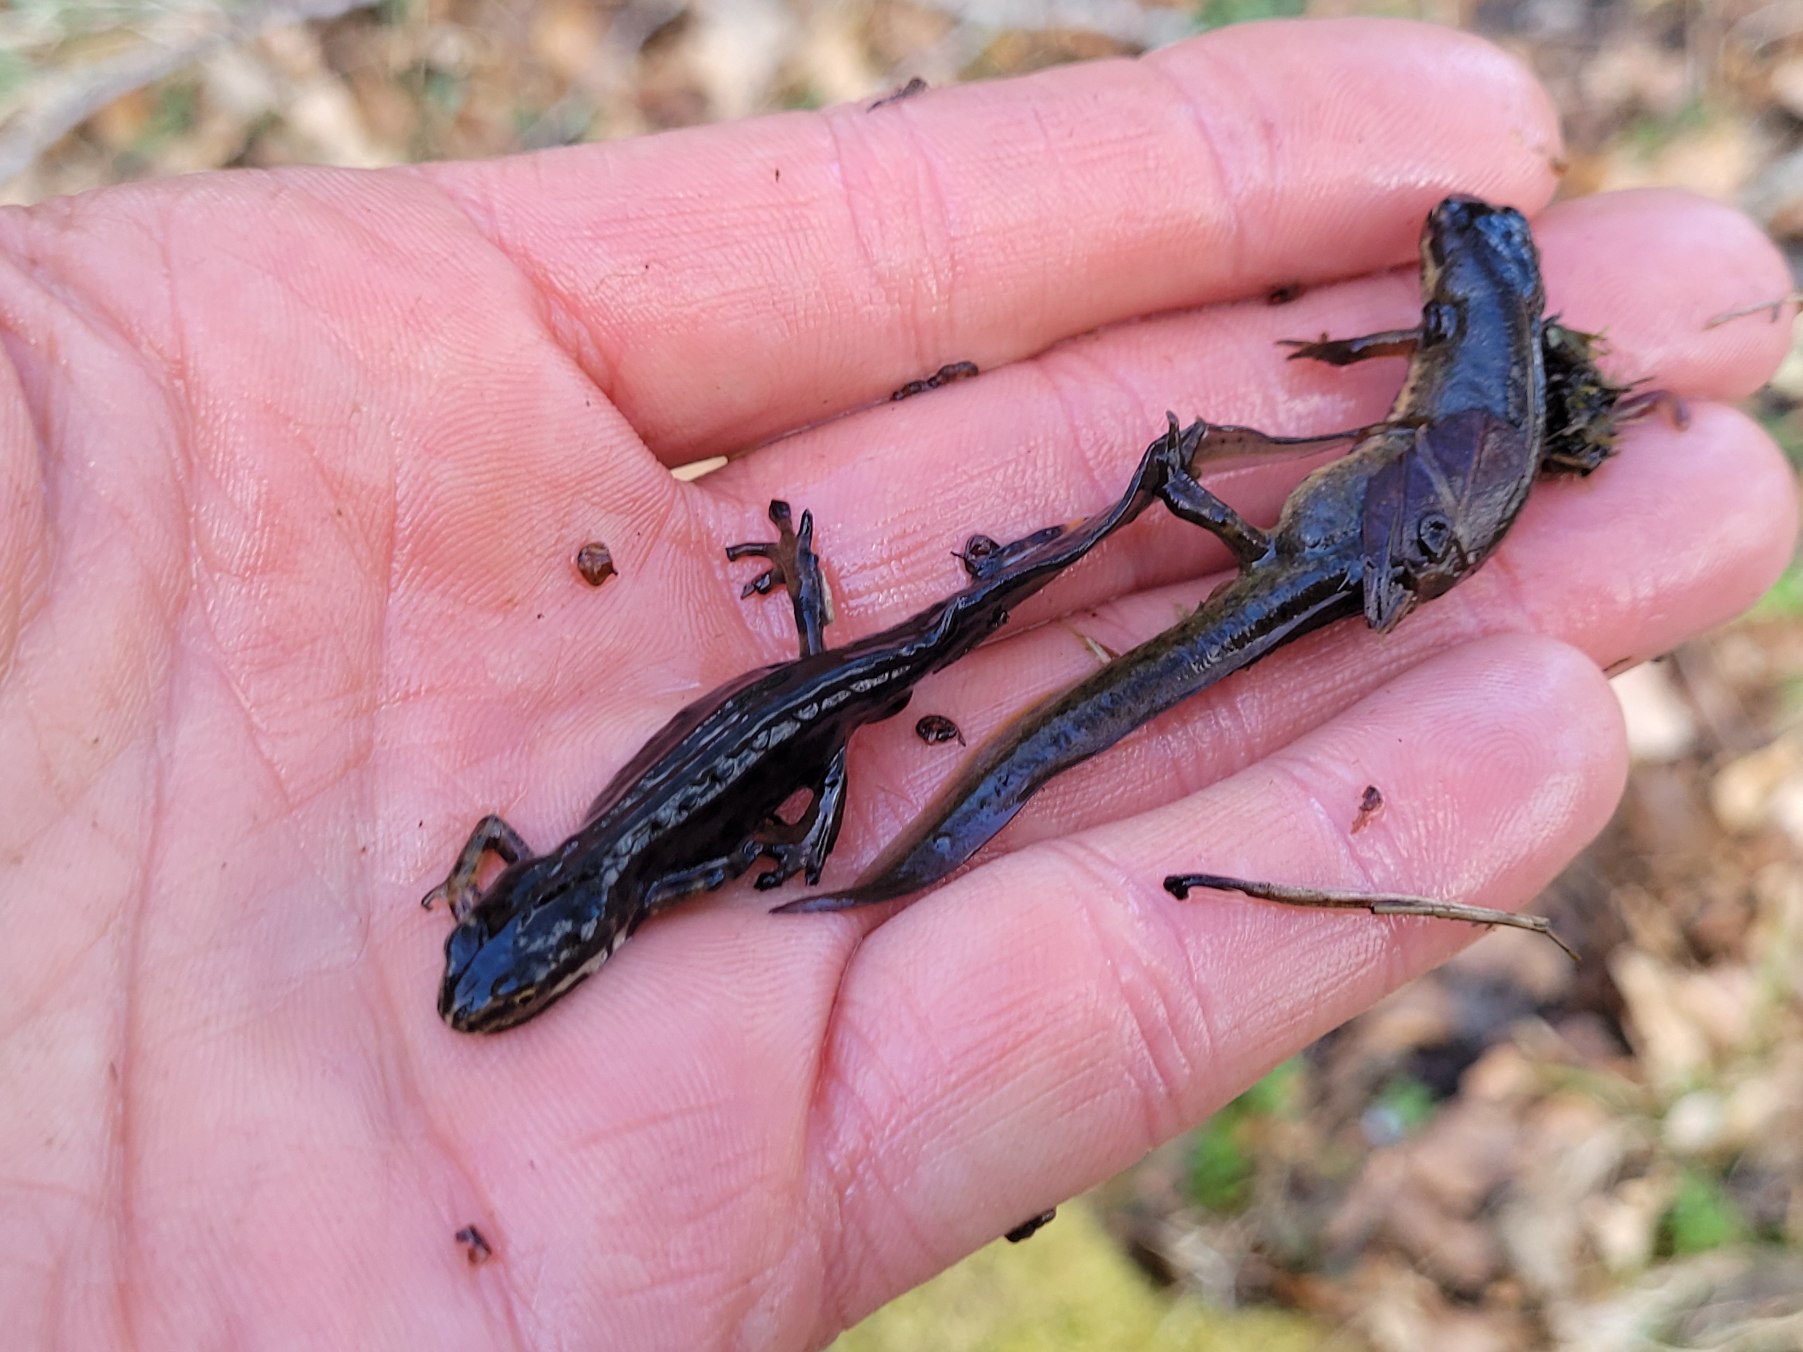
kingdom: Animalia
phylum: Chordata
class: Amphibia
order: Caudata
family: Salamandridae
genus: Lissotriton
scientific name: Lissotriton vulgaris
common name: Lille vandsalamander
